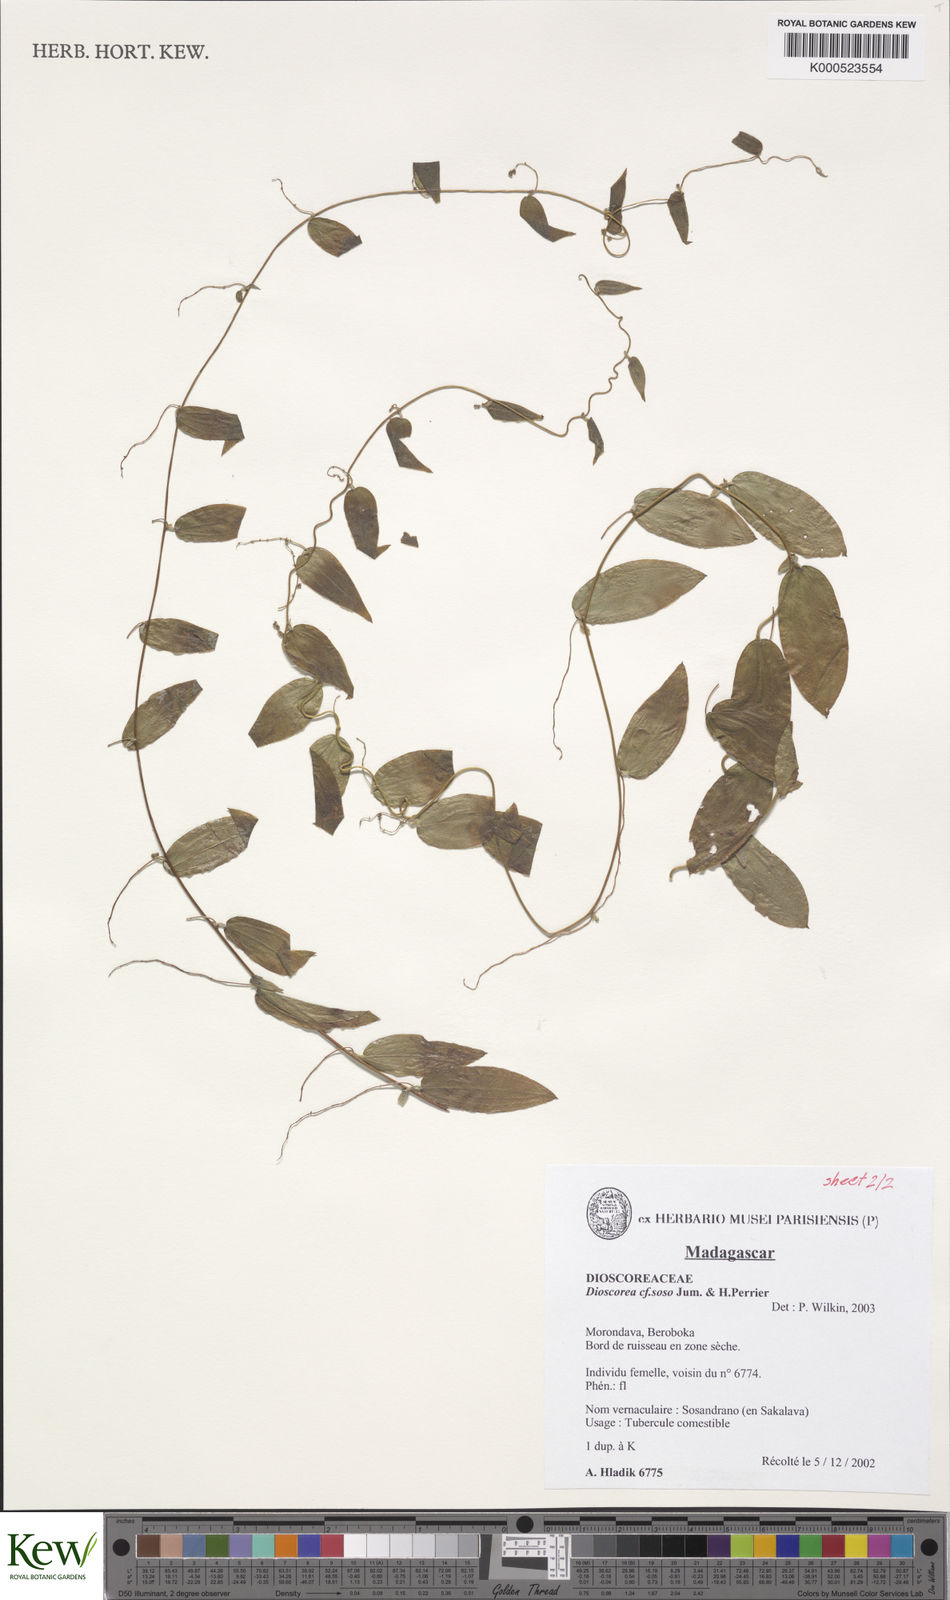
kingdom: Plantae
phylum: Tracheophyta
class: Liliopsida
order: Dioscoreales
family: Dioscoreaceae
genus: Dioscorea
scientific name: Dioscorea soso
